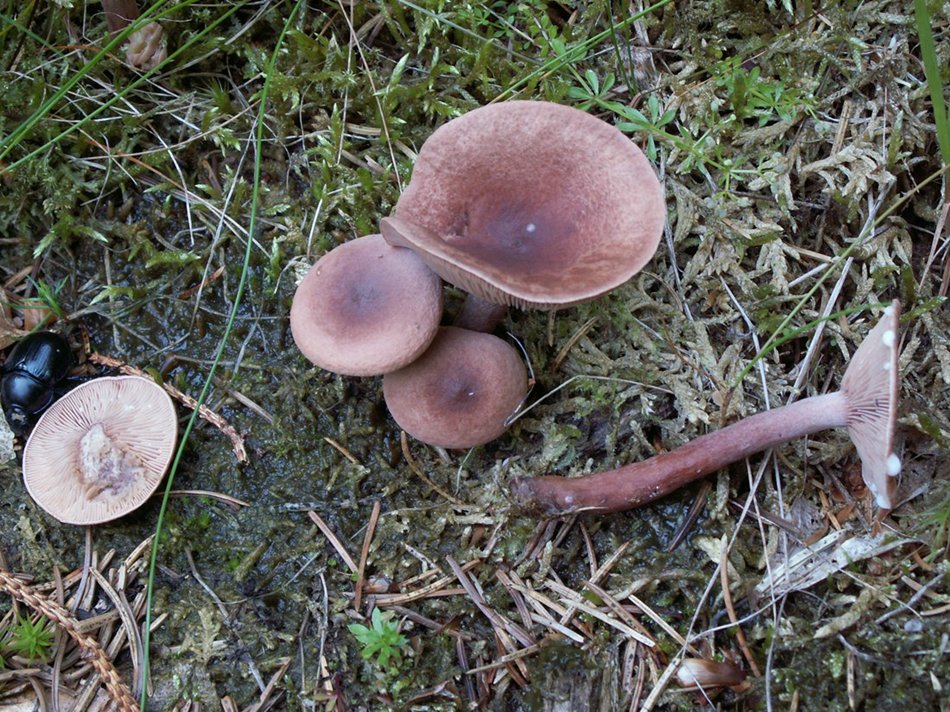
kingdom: Fungi
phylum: Basidiomycota
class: Agaricomycetes
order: Russulales
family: Russulaceae
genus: Lactarius
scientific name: Lactarius hepaticus
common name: leverbrun mælkehat
